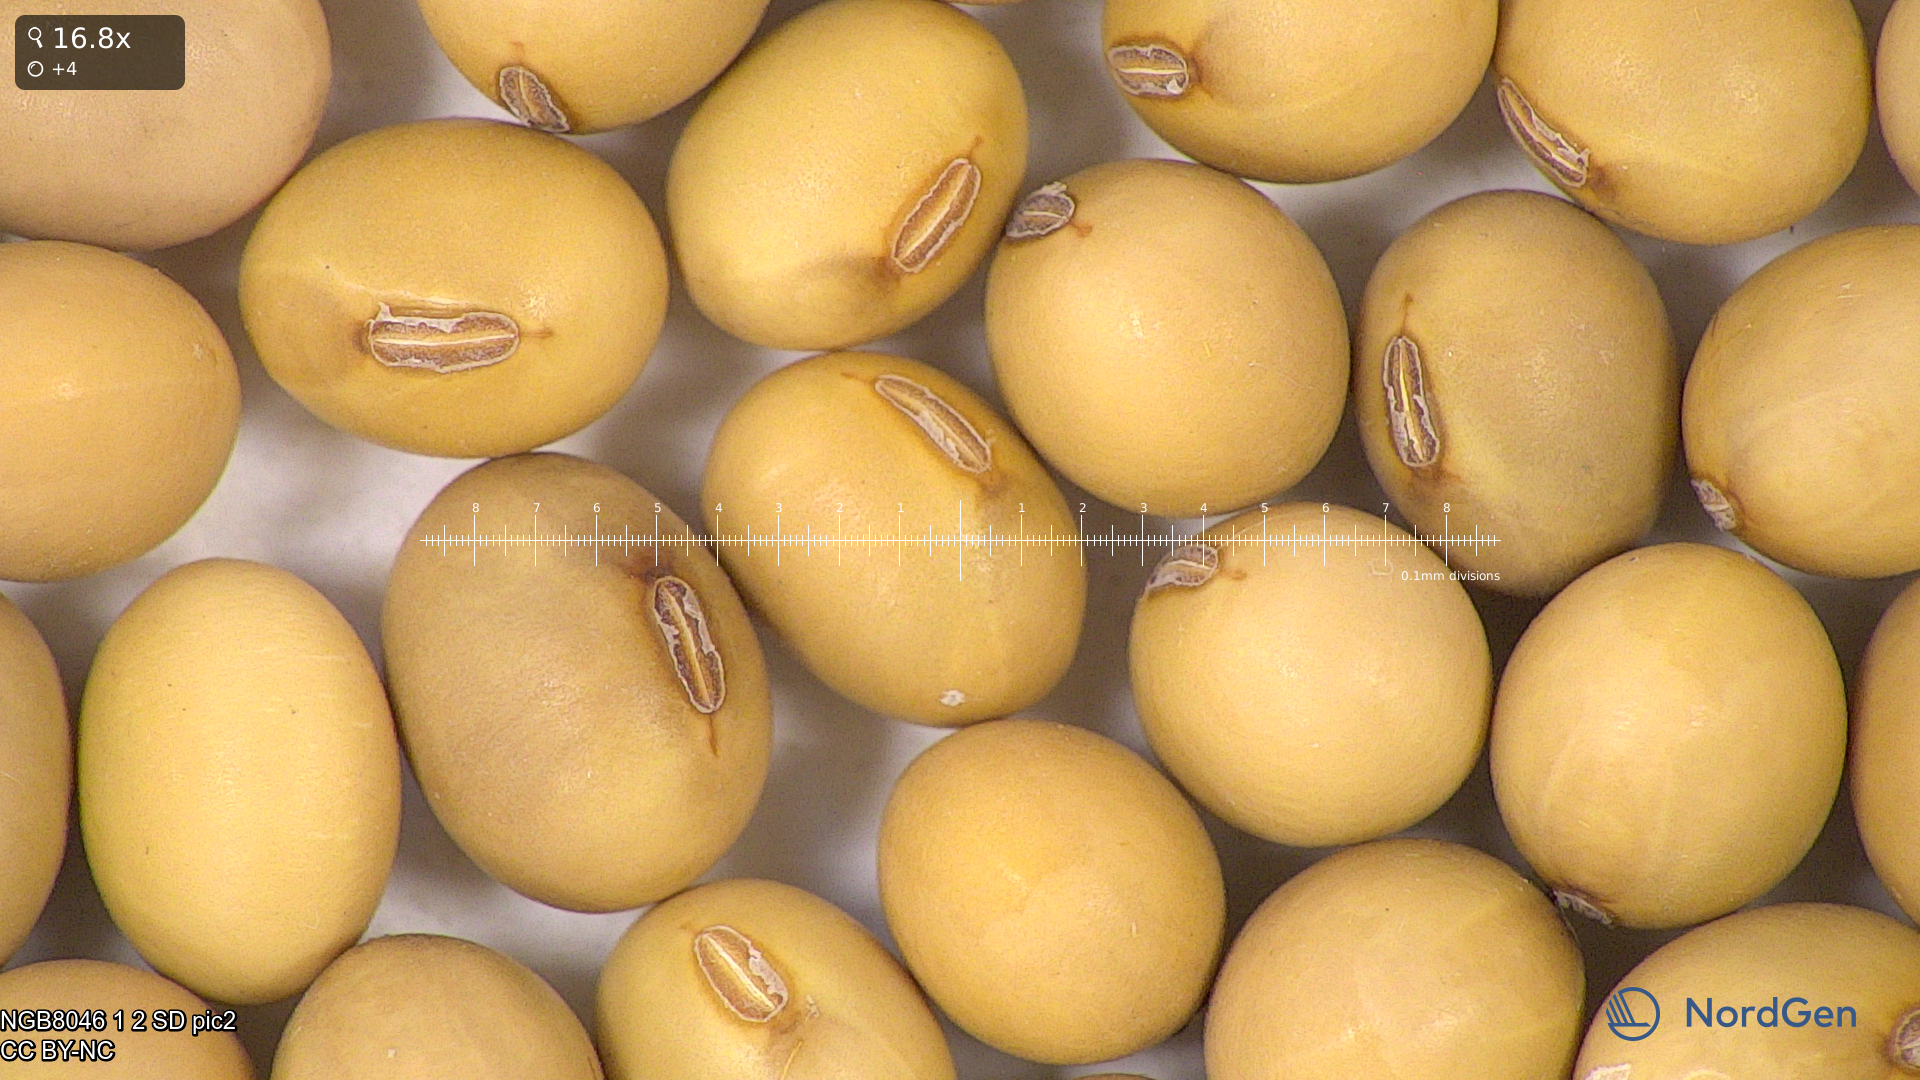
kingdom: Plantae
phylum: Tracheophyta
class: Magnoliopsida
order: Fabales
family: Fabaceae
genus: Glycine
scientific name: Glycine max
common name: Soya-bean
